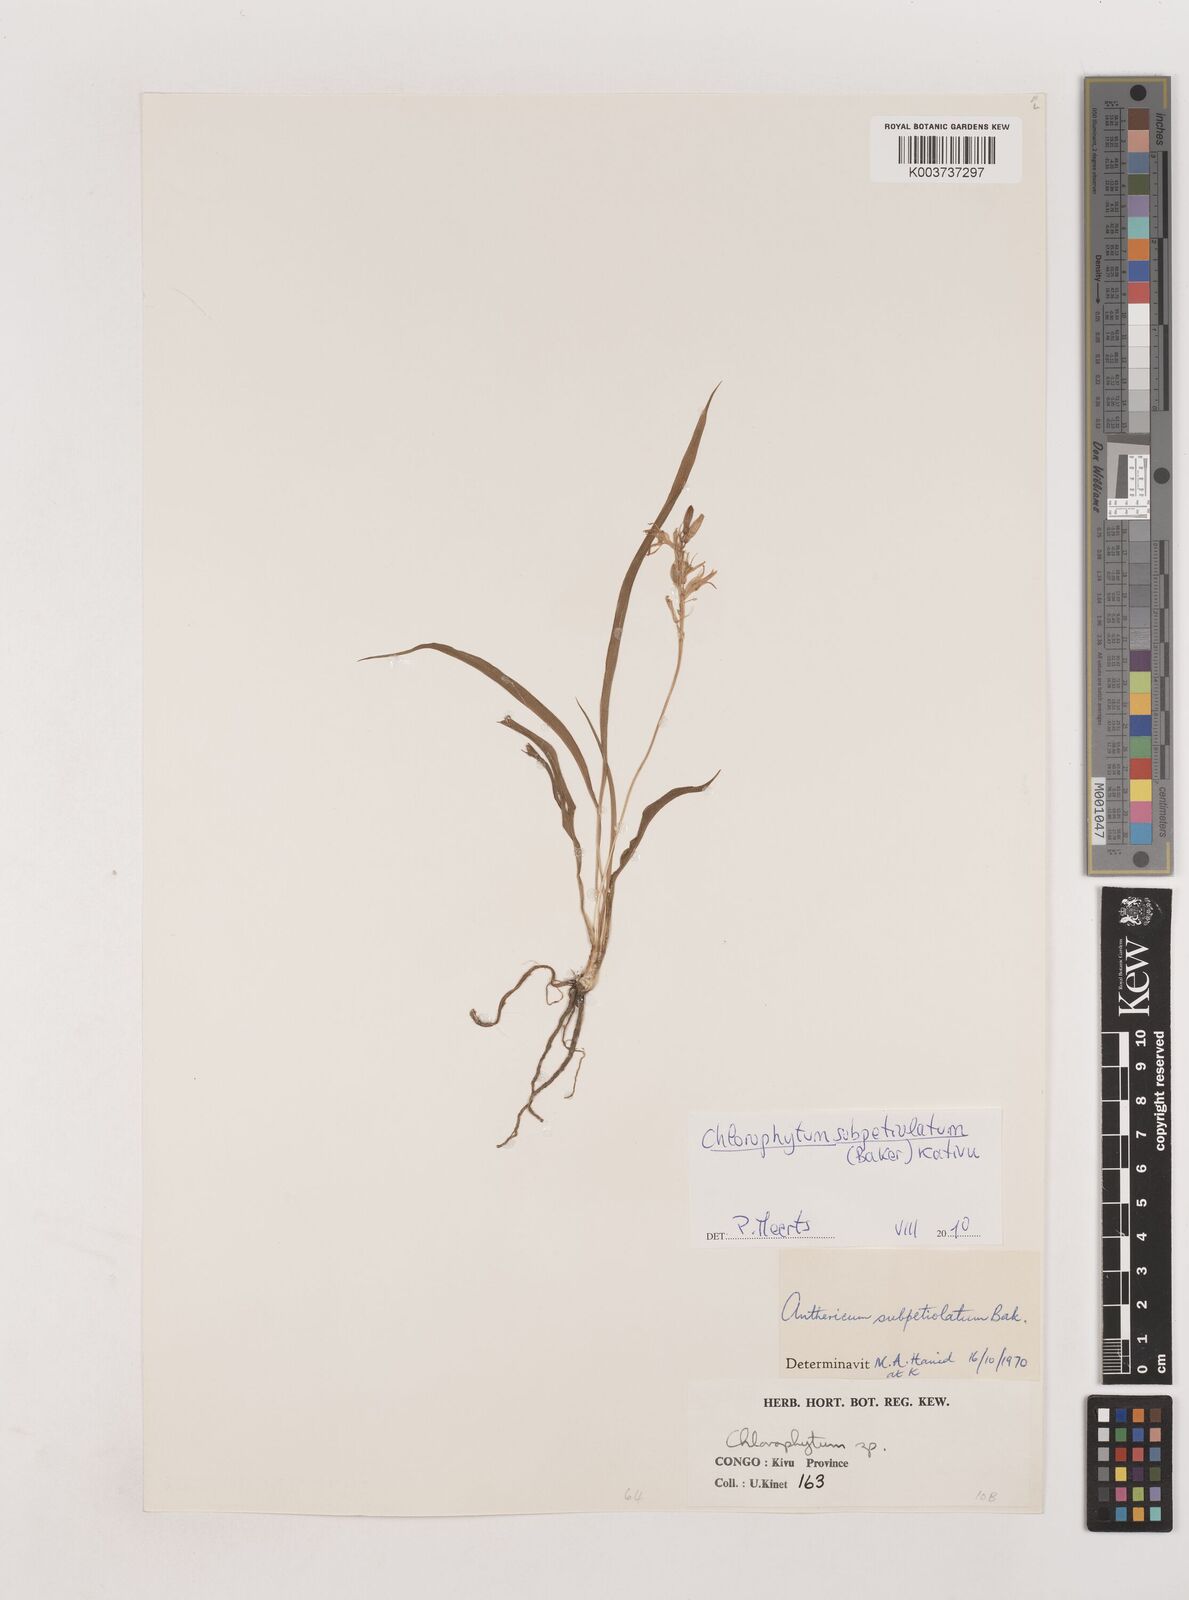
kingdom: Plantae
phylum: Tracheophyta
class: Liliopsida
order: Asparagales
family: Asparagaceae
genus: Chlorophytum
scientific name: Chlorophytum subpetiolatum
